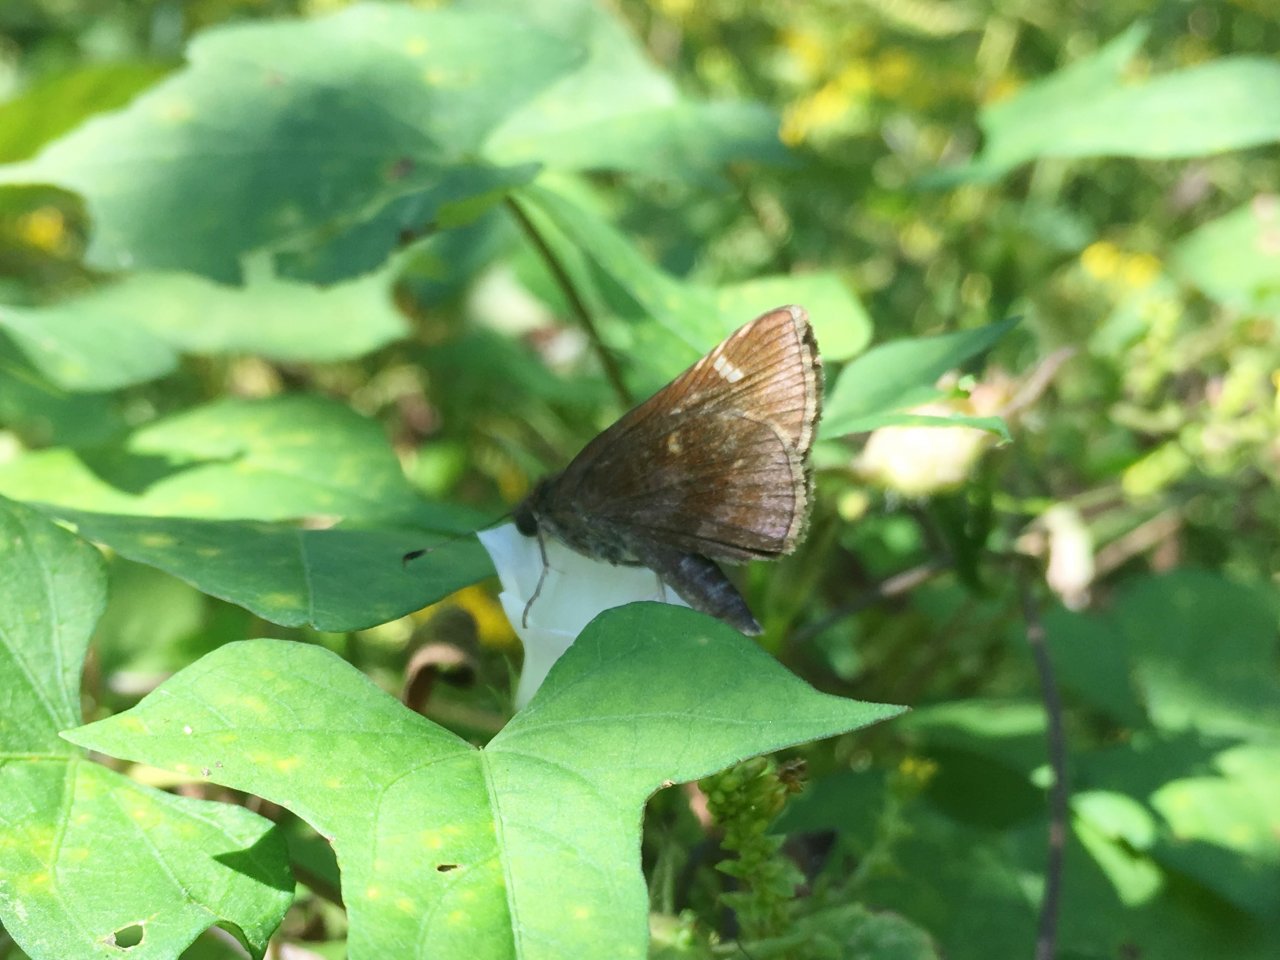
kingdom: Animalia
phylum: Arthropoda
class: Insecta
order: Lepidoptera
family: Hesperiidae
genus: Lerema
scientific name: Lerema accius
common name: Clouded Skipper
